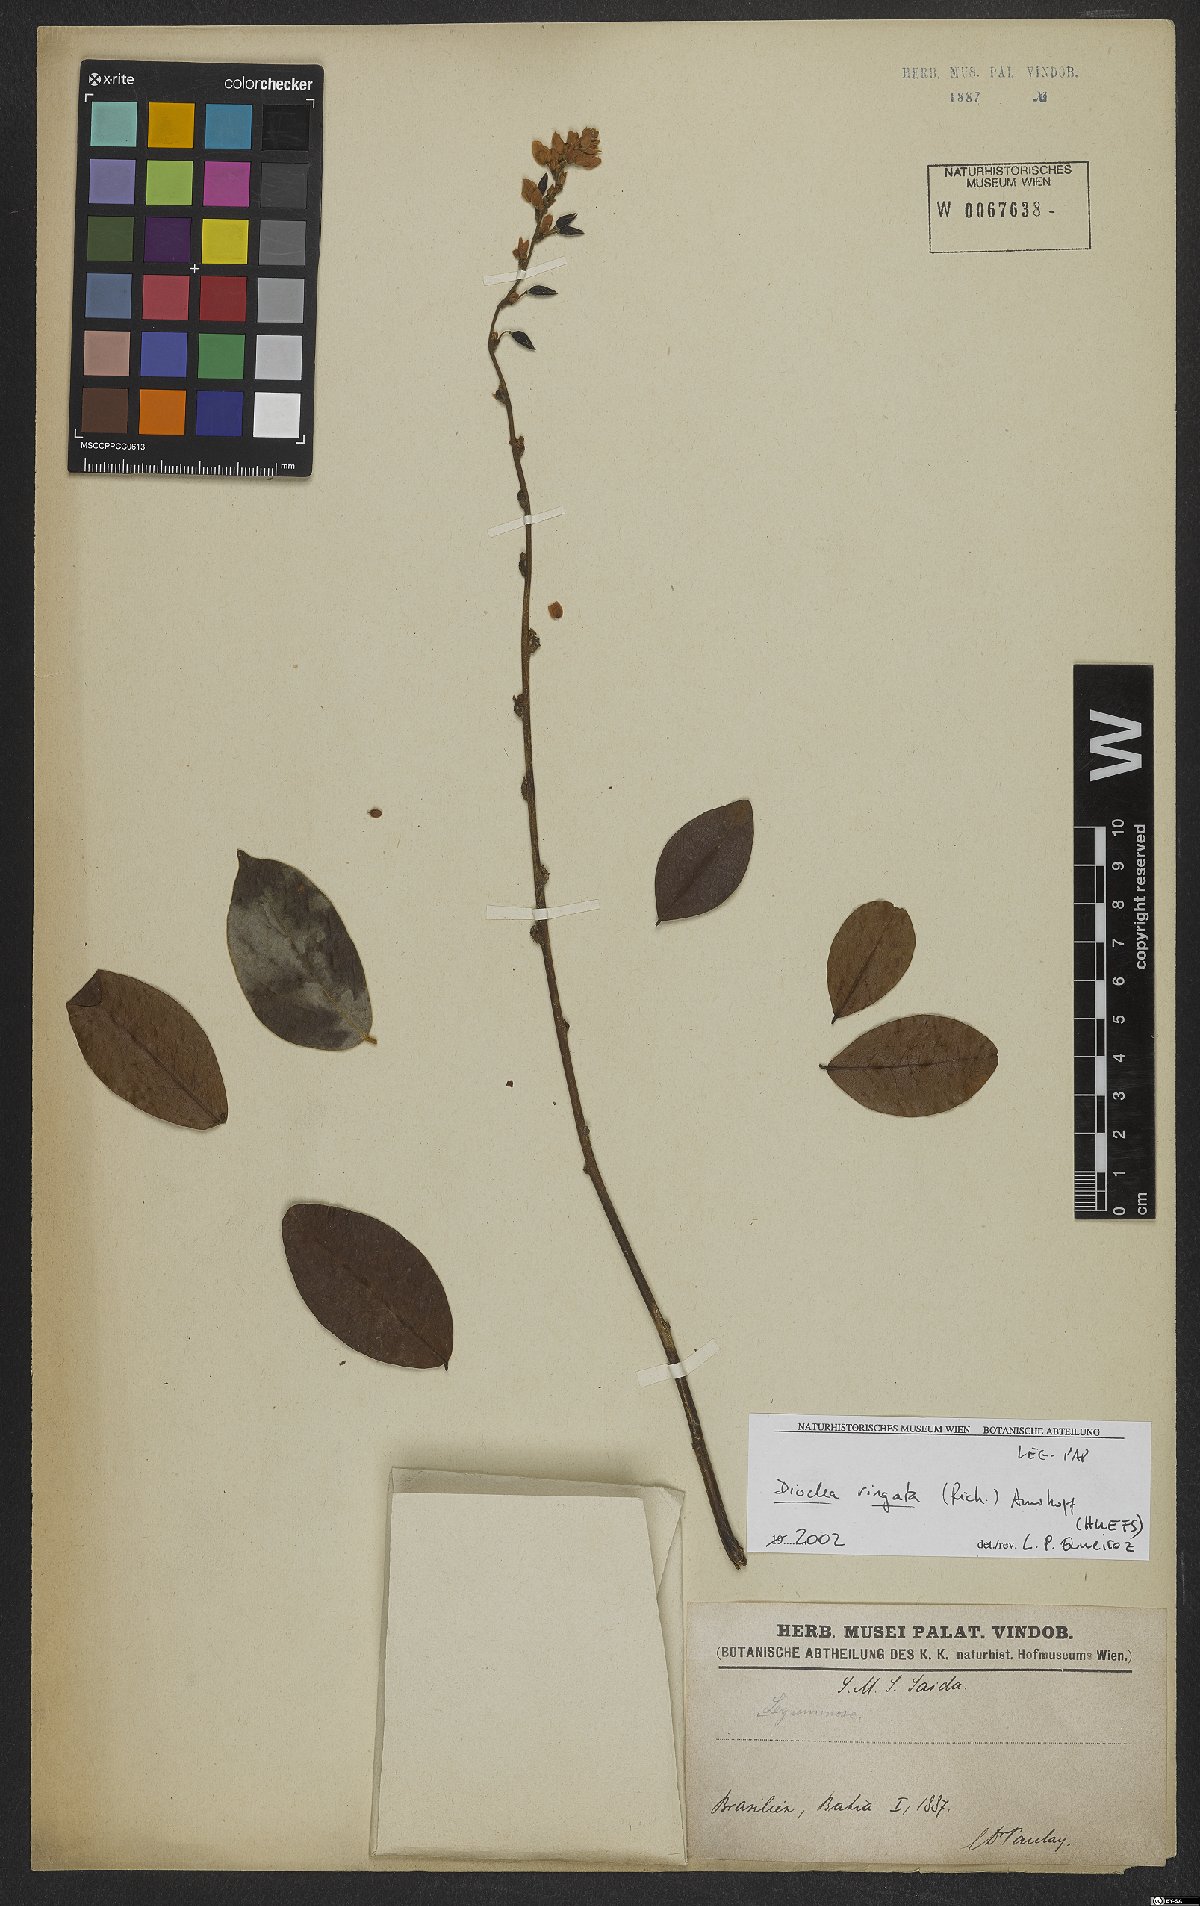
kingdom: Plantae
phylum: Tracheophyta
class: Magnoliopsida
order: Fabales
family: Fabaceae
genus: Dioclea
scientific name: Dioclea virgata
